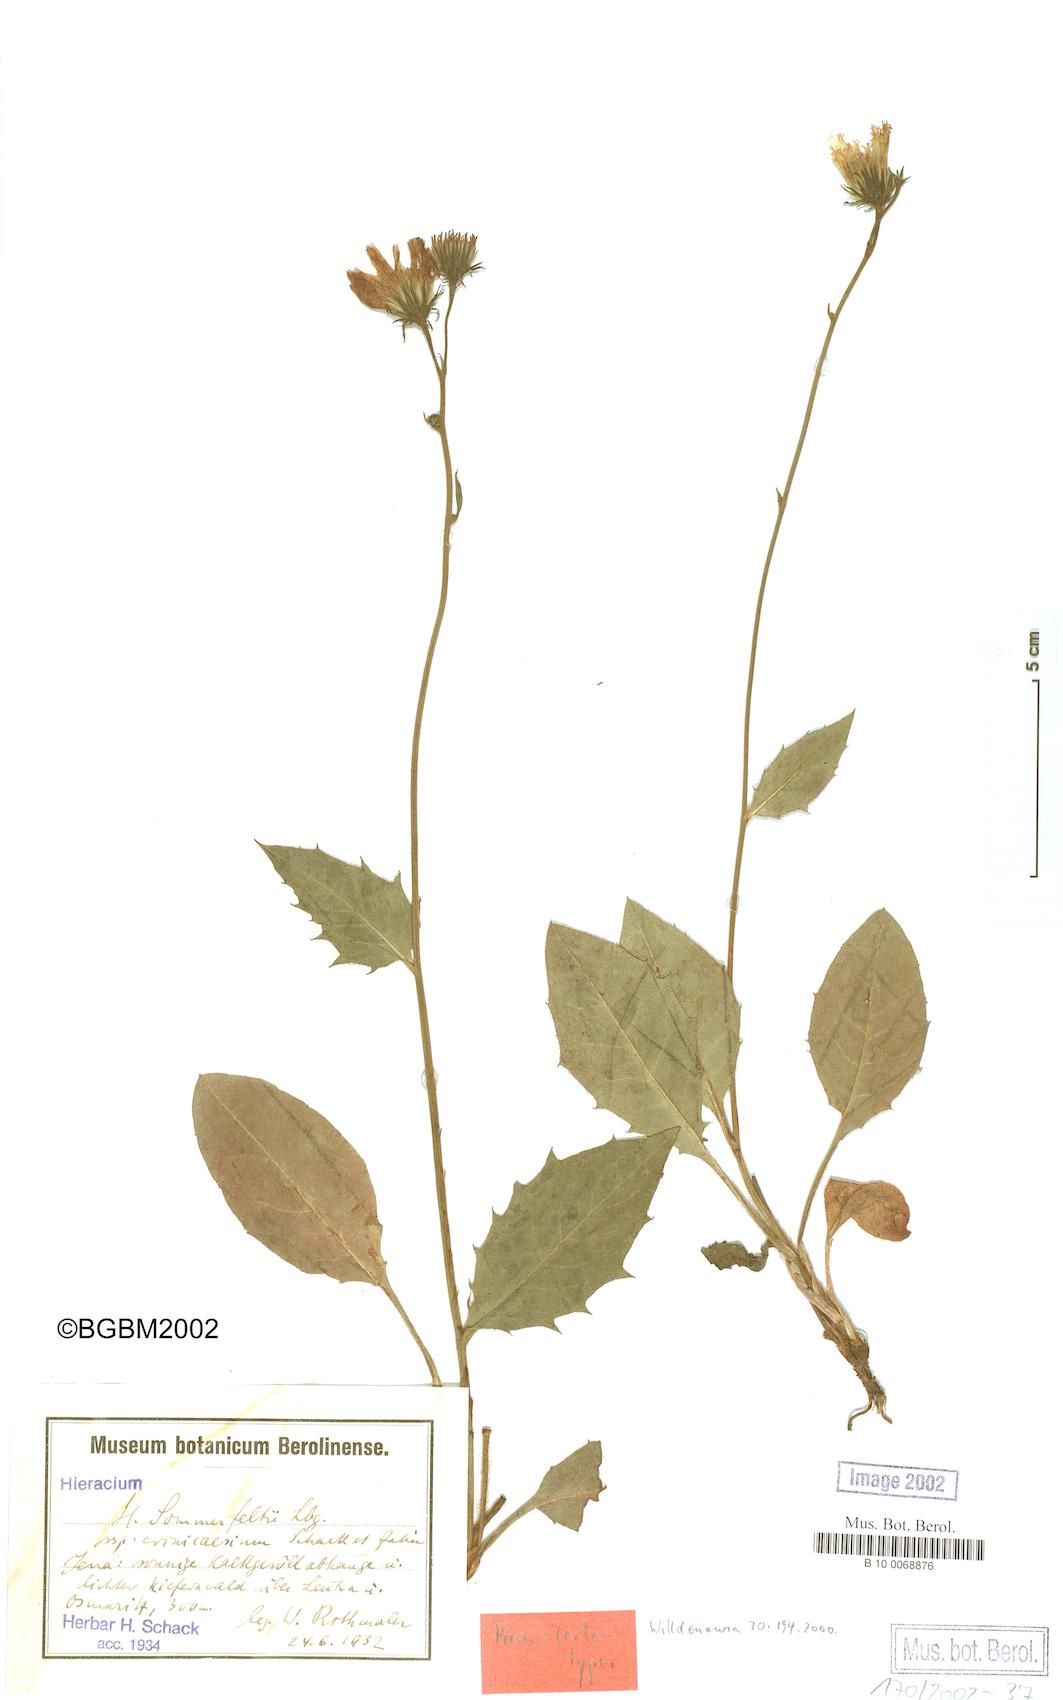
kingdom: Plantae
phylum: Tracheophyta
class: Magnoliopsida
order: Asterales
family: Asteraceae
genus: Hieracium
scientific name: Hieracium hypochoeroides
